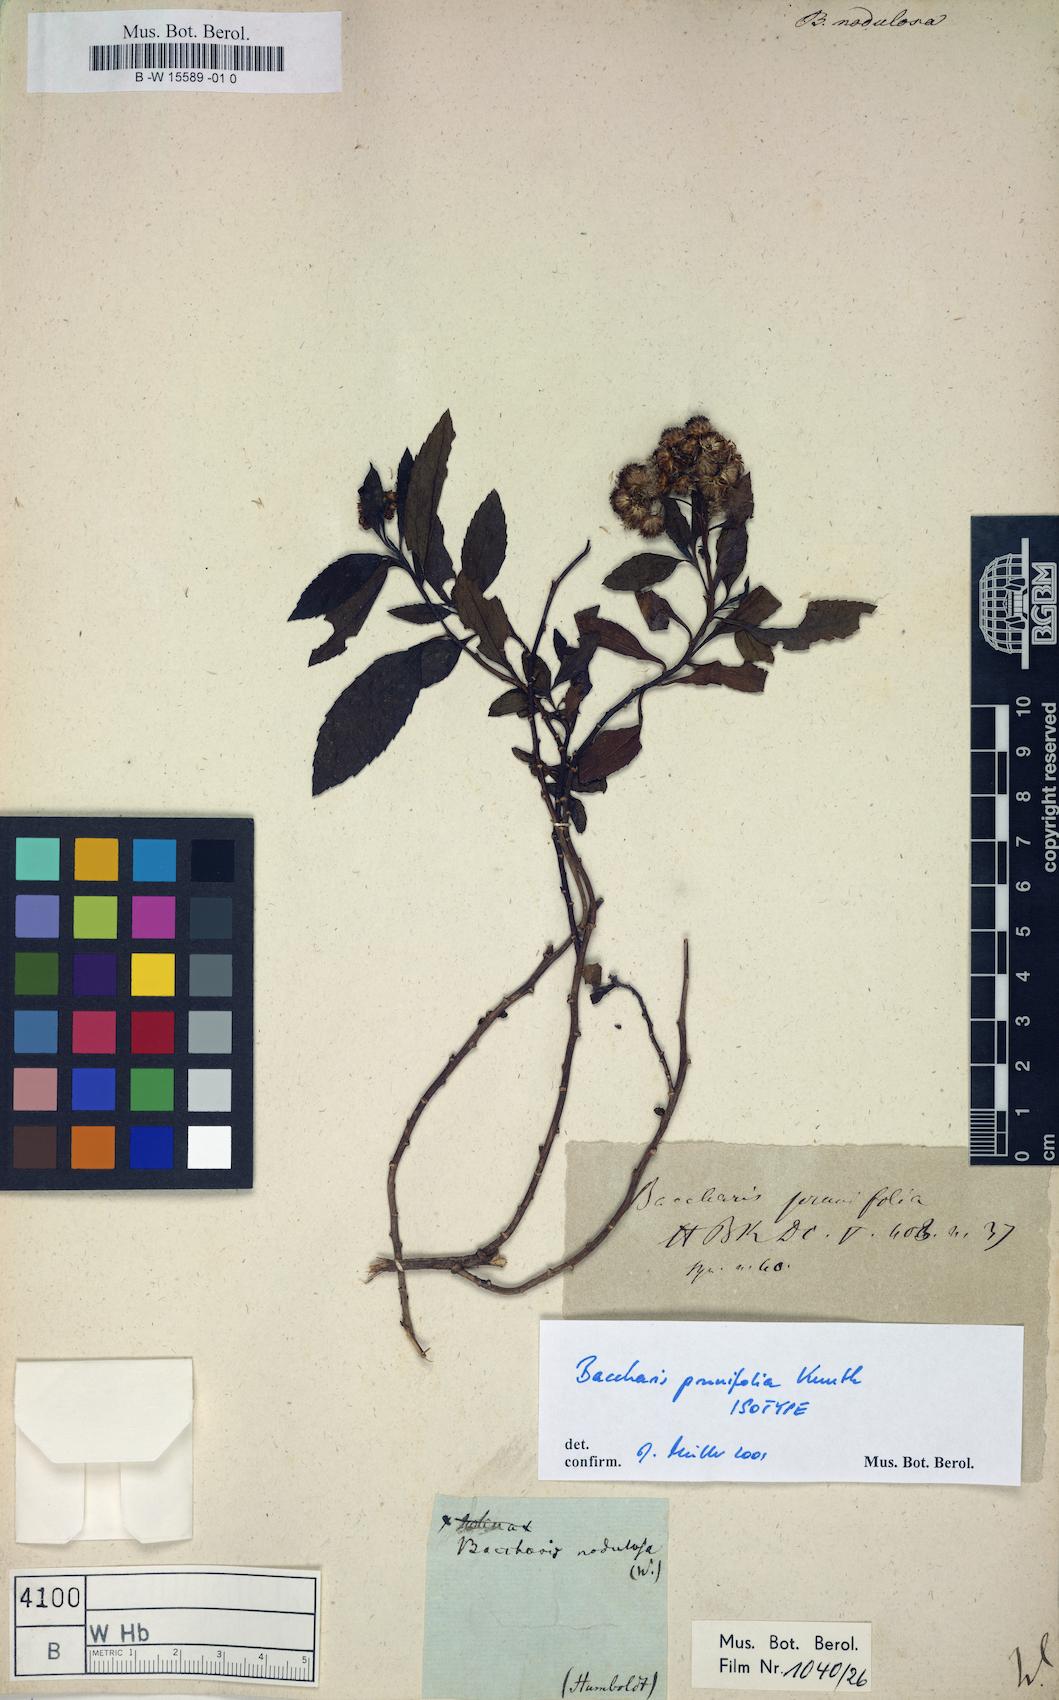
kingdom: Plantae
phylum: Tracheophyta
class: Magnoliopsida
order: Asterales
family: Asteraceae
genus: Baccharis
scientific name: Baccharis
